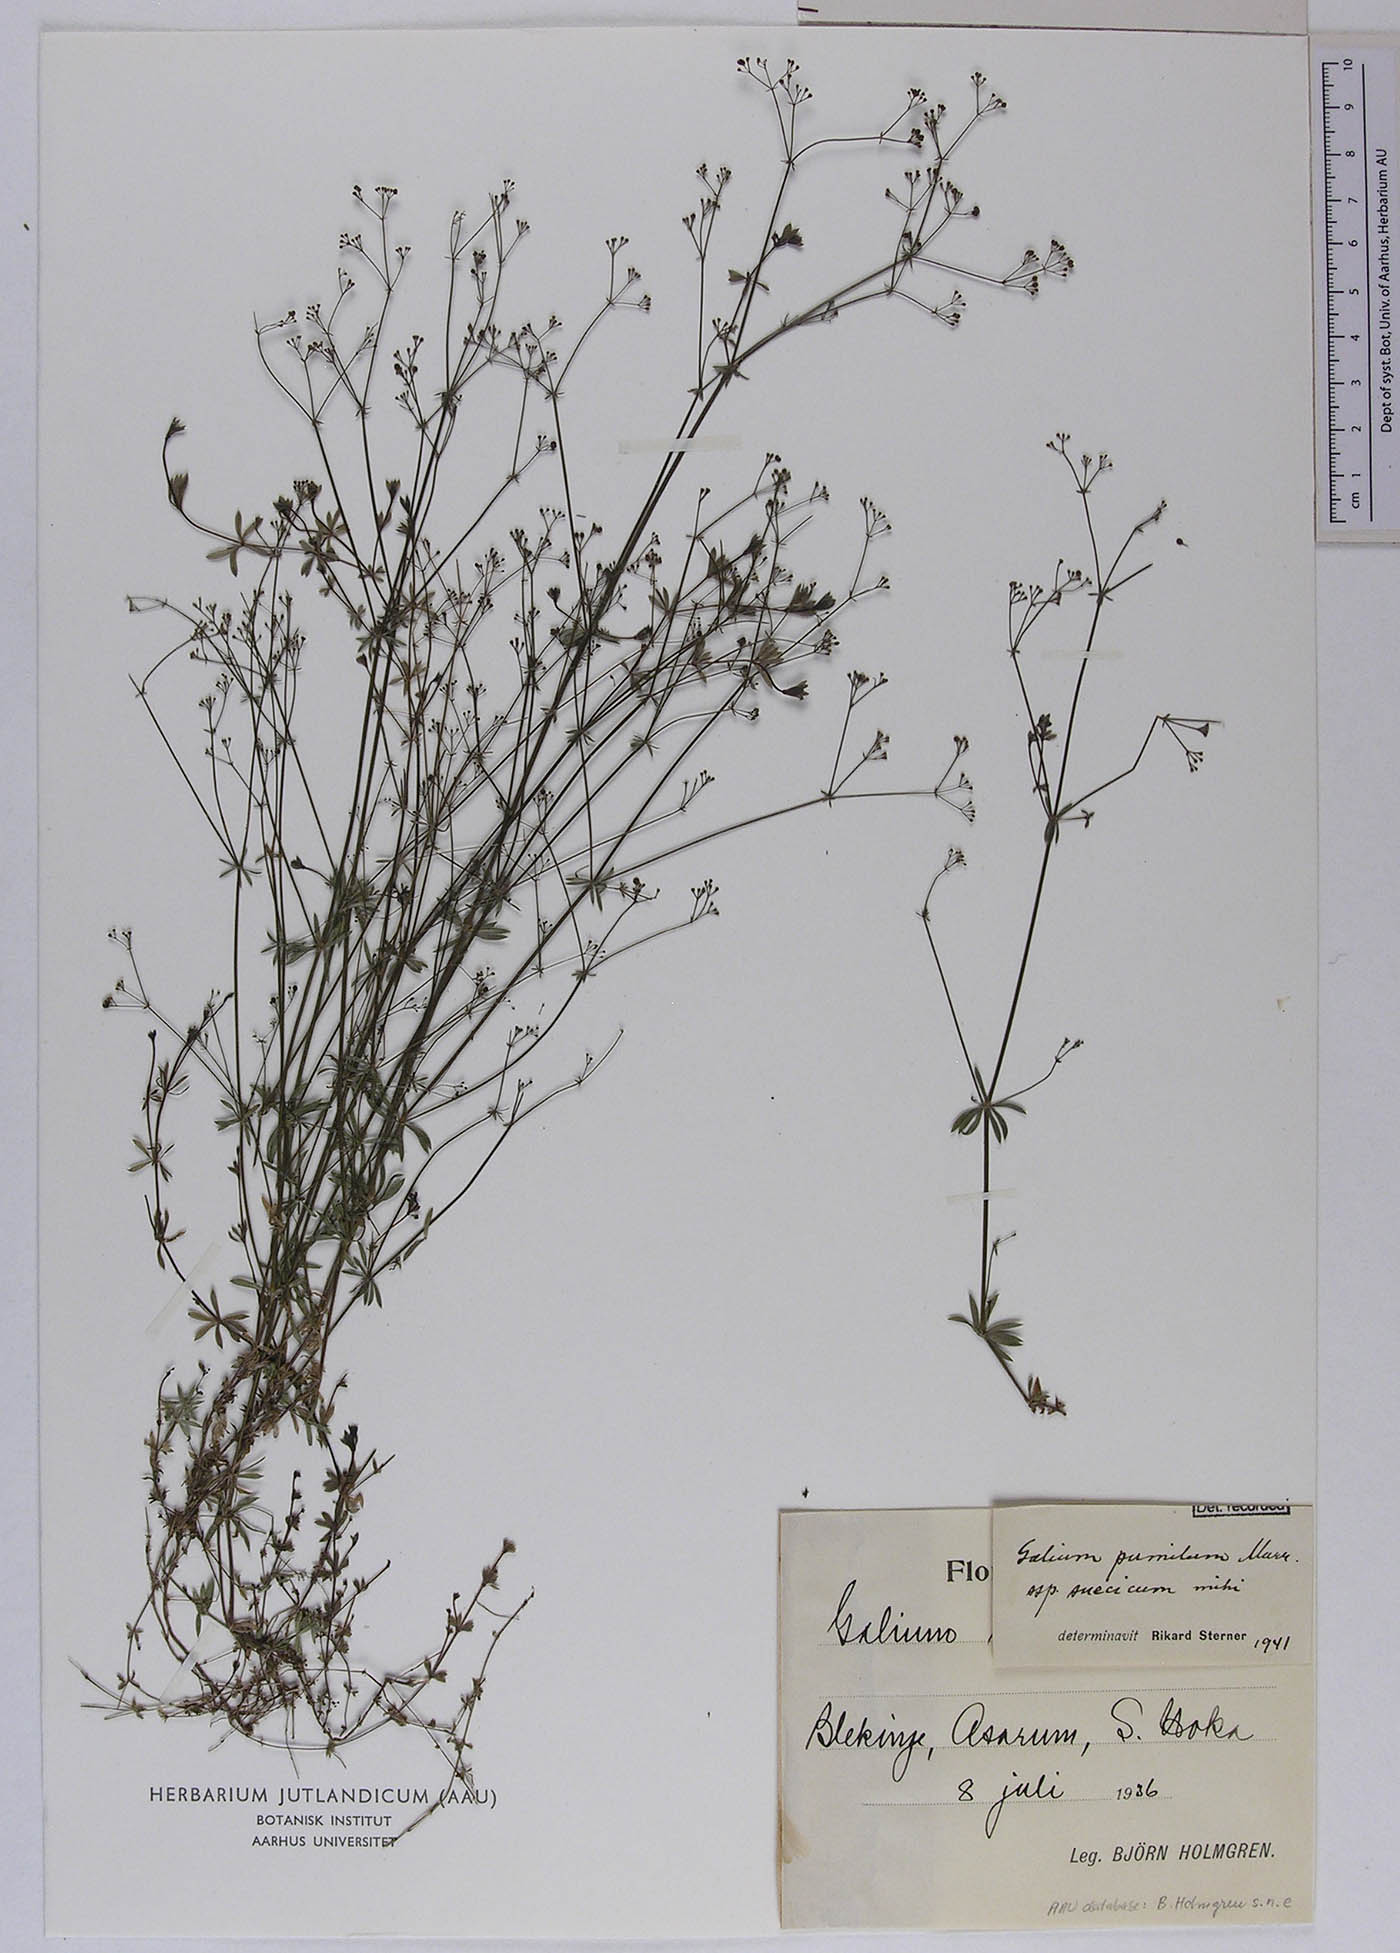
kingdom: Plantae
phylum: Tracheophyta
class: Magnoliopsida
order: Gentianales
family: Rubiaceae
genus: Galium
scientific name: Galium pusillum
